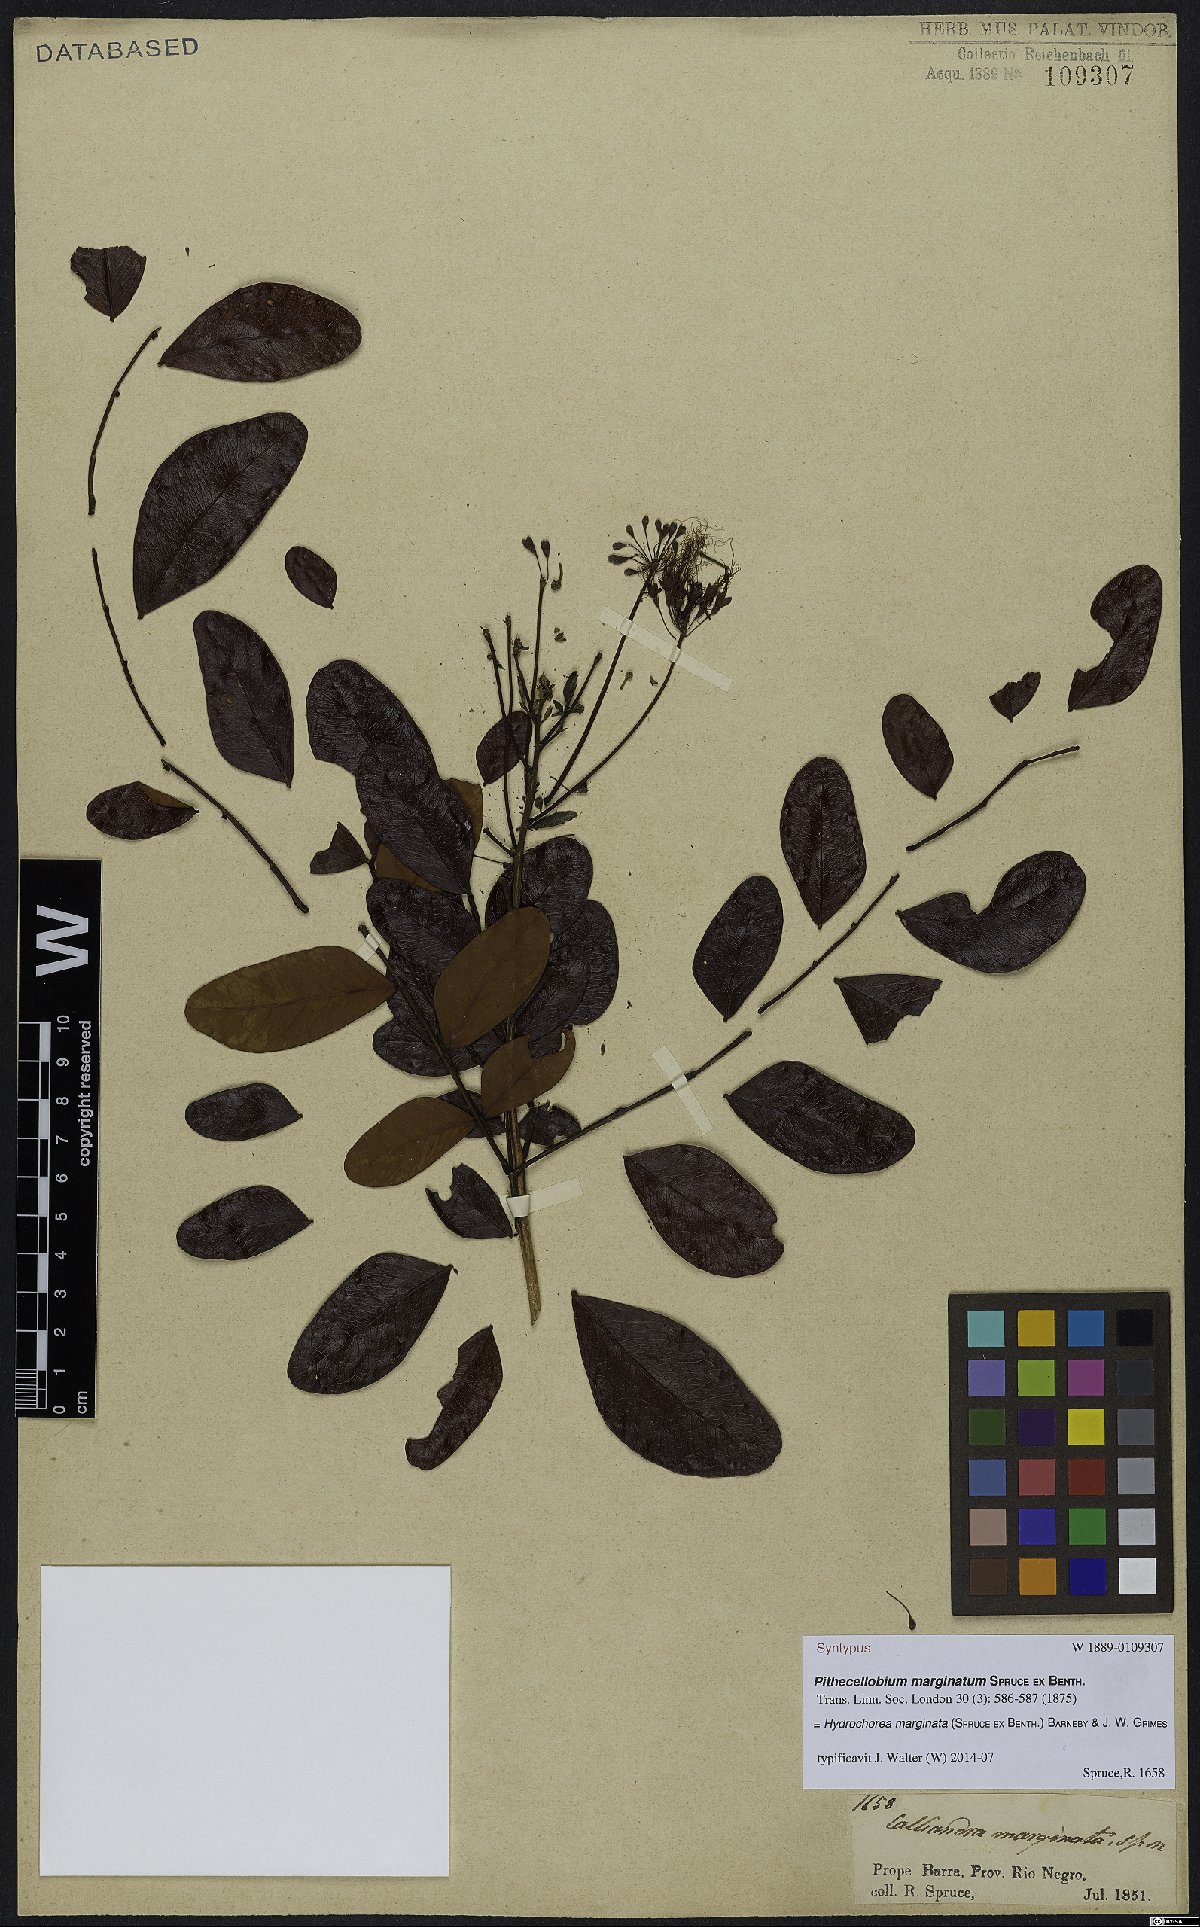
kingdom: Plantae
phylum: Tracheophyta
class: Magnoliopsida
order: Fabales
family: Fabaceae
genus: Hydrochorea
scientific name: Hydrochorea marginata
